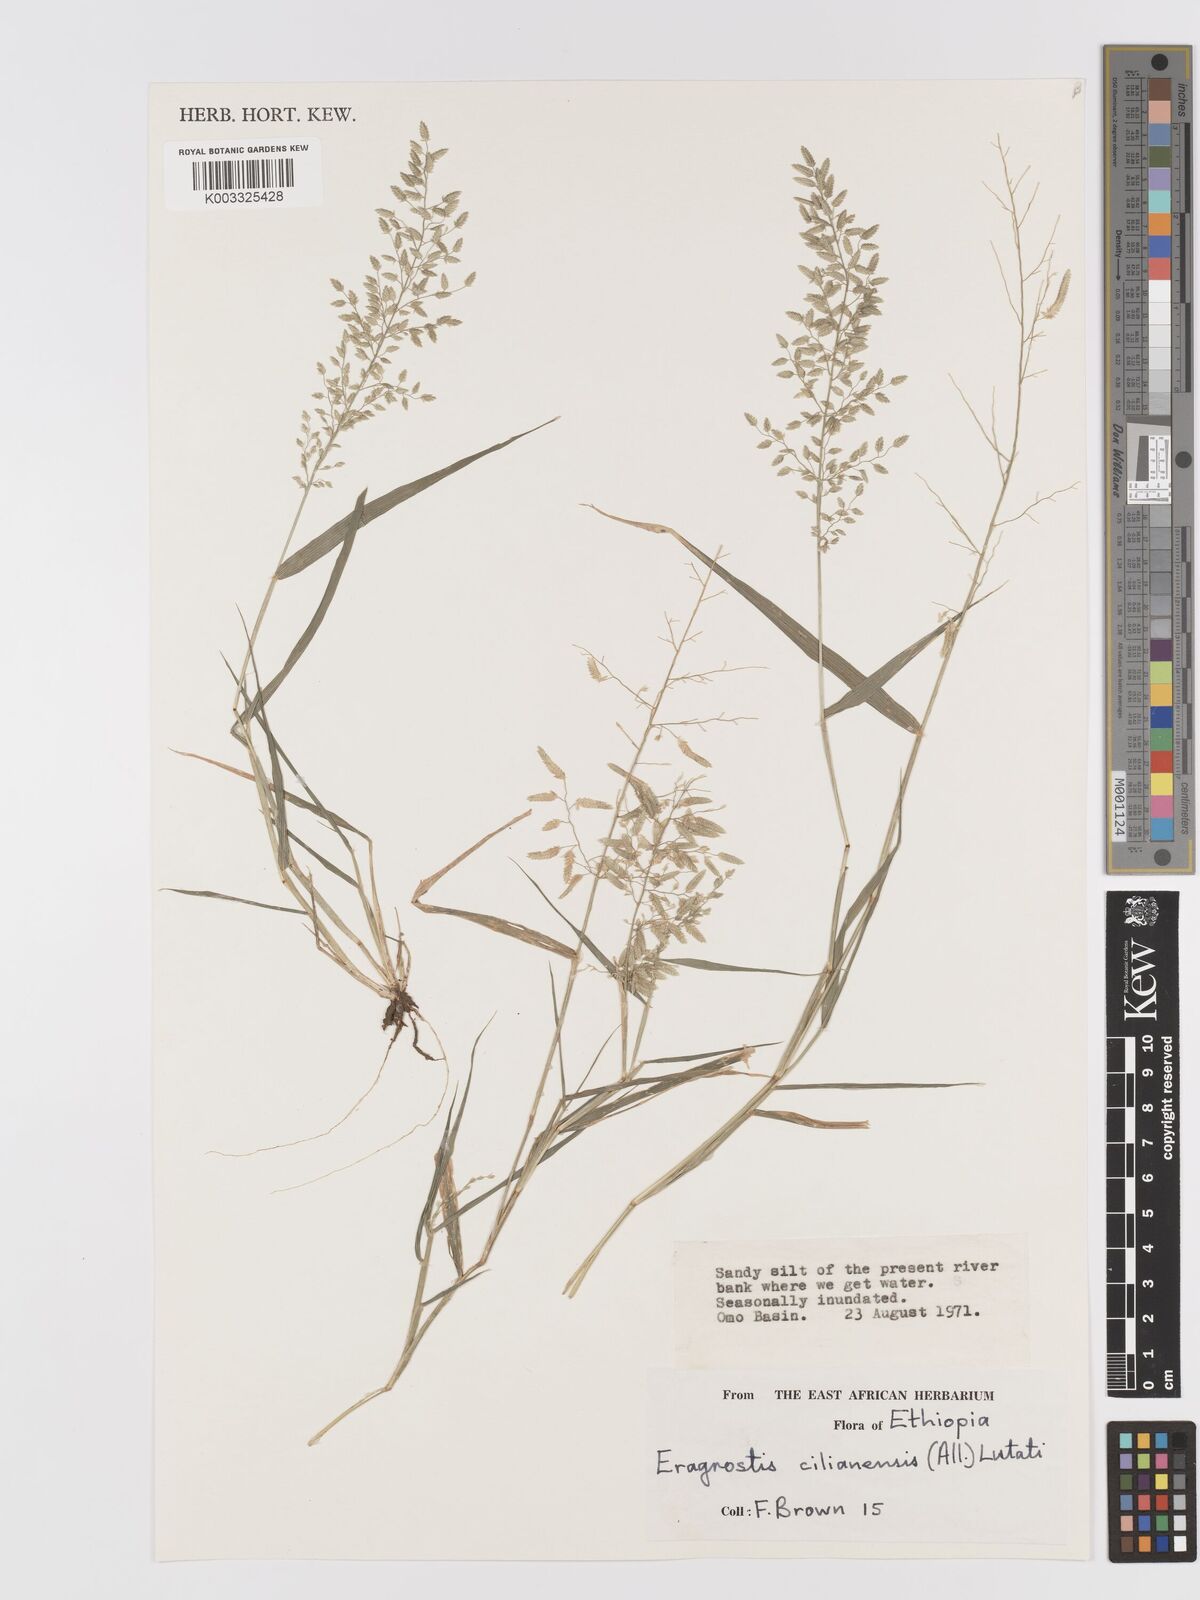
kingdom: Plantae
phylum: Tracheophyta
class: Liliopsida
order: Poales
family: Poaceae
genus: Eragrostis
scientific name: Eragrostis cilianensis
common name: Stinkgrass
